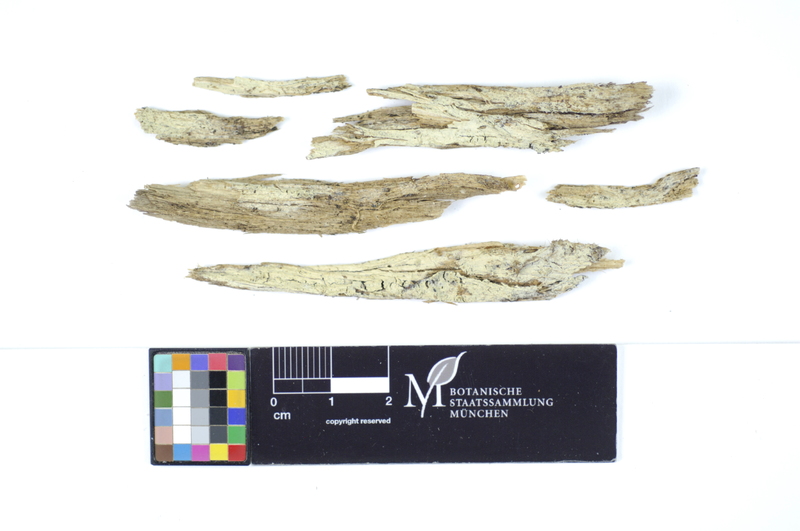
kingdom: Plantae
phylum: Tracheophyta
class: Pinopsida
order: Pinales
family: Pinaceae
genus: Picea
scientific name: Picea
